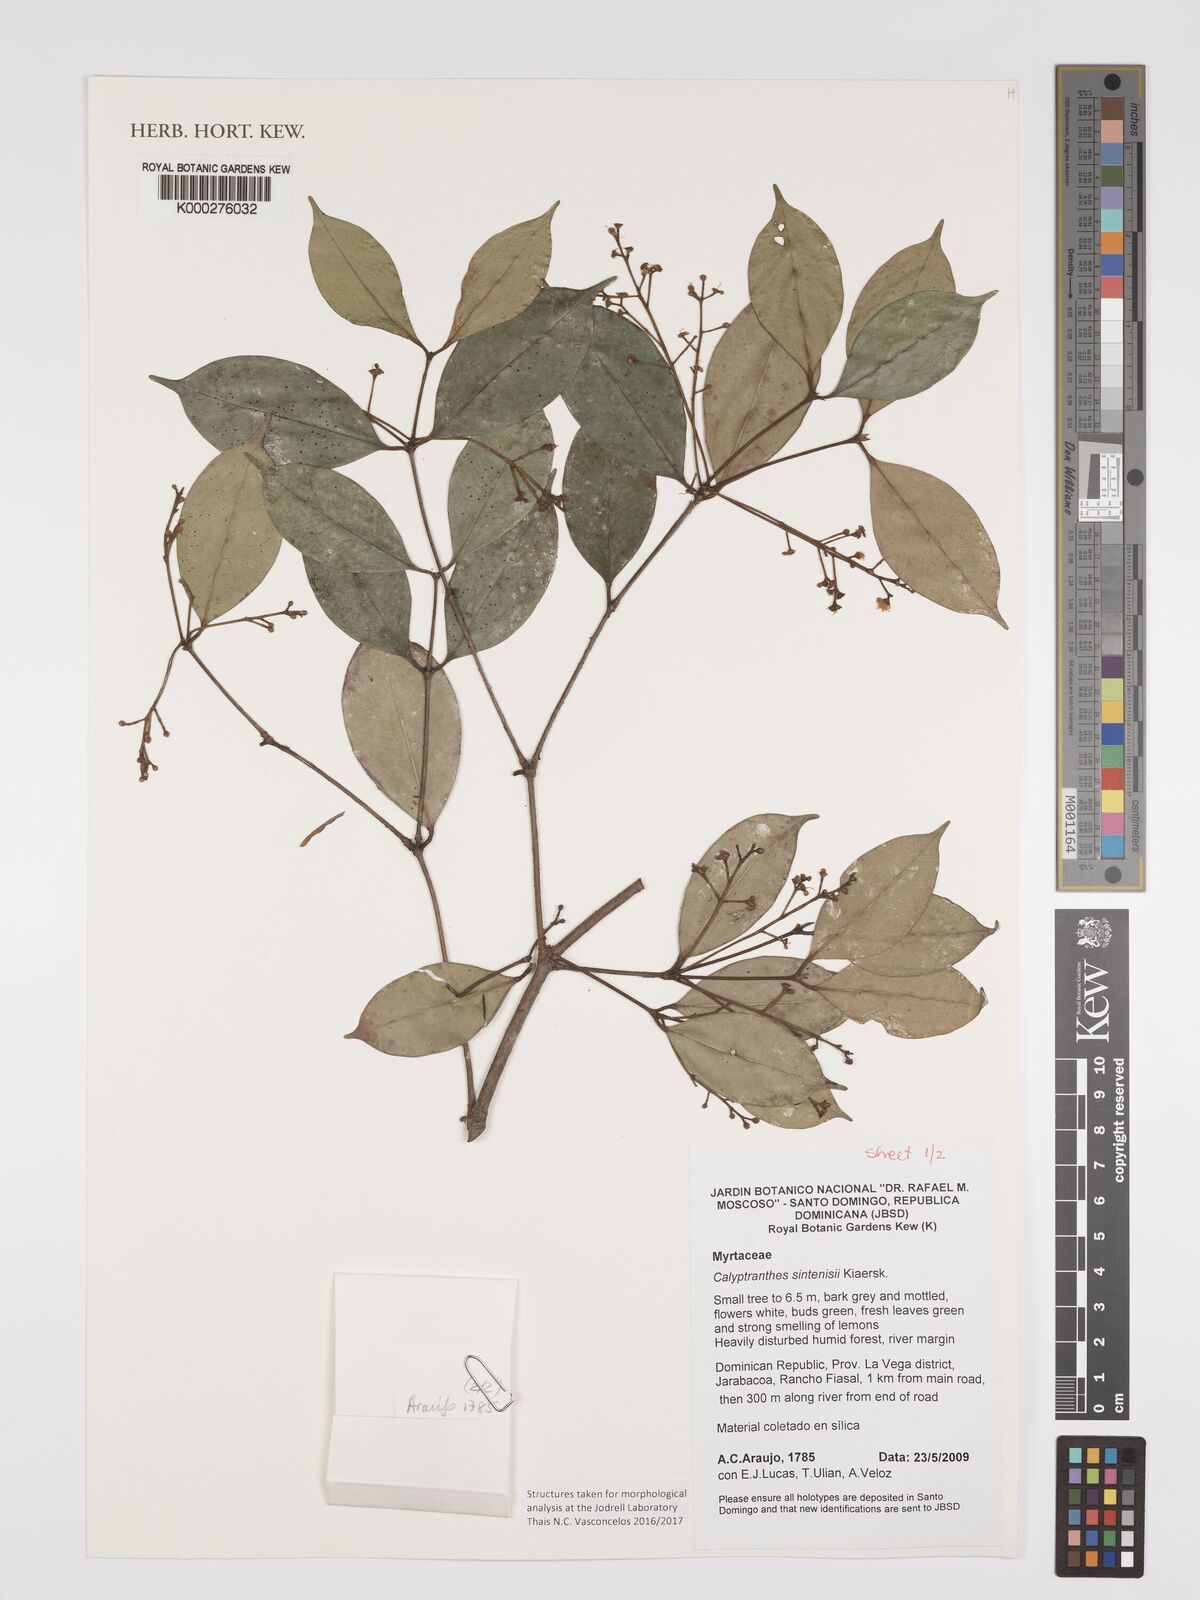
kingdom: Plantae
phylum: Tracheophyta
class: Magnoliopsida
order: Myrtales
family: Myrtaceae
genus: Myrcia
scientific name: Myrcia neosintenisii
